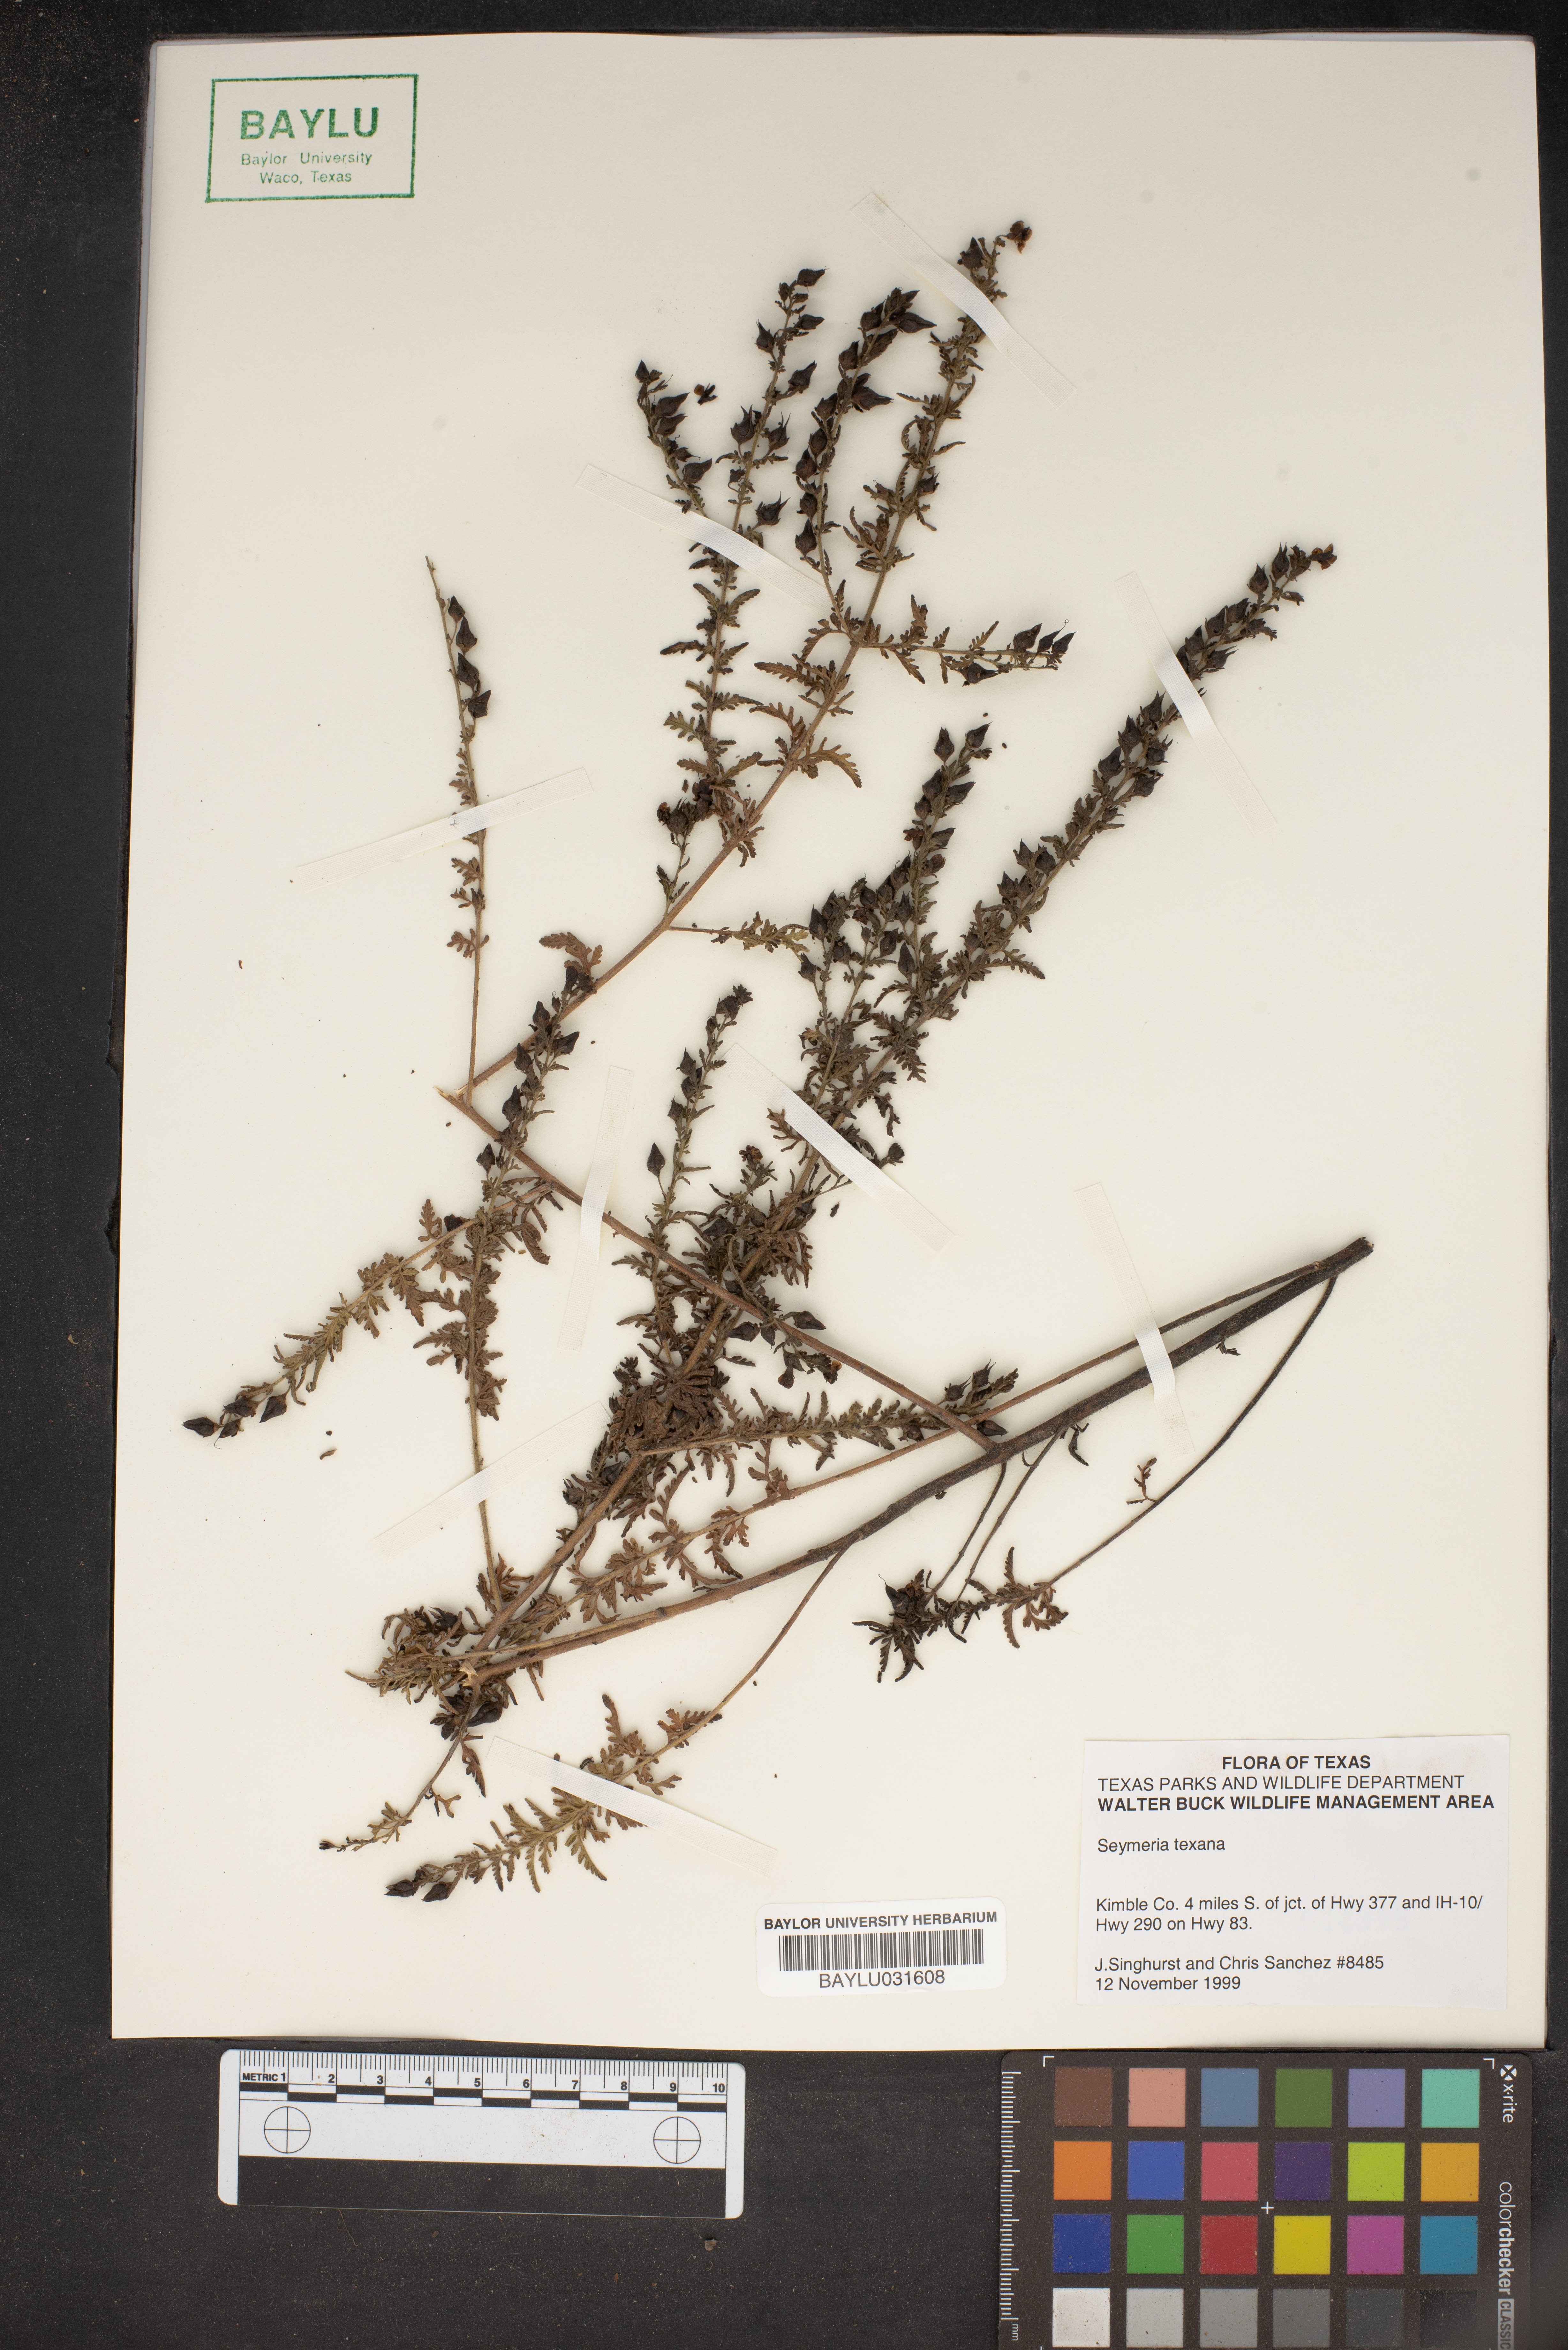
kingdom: Plantae
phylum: Tracheophyta
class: Magnoliopsida
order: Lamiales
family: Orobanchaceae
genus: Seymeria
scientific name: Seymeria bipinnatisecta
